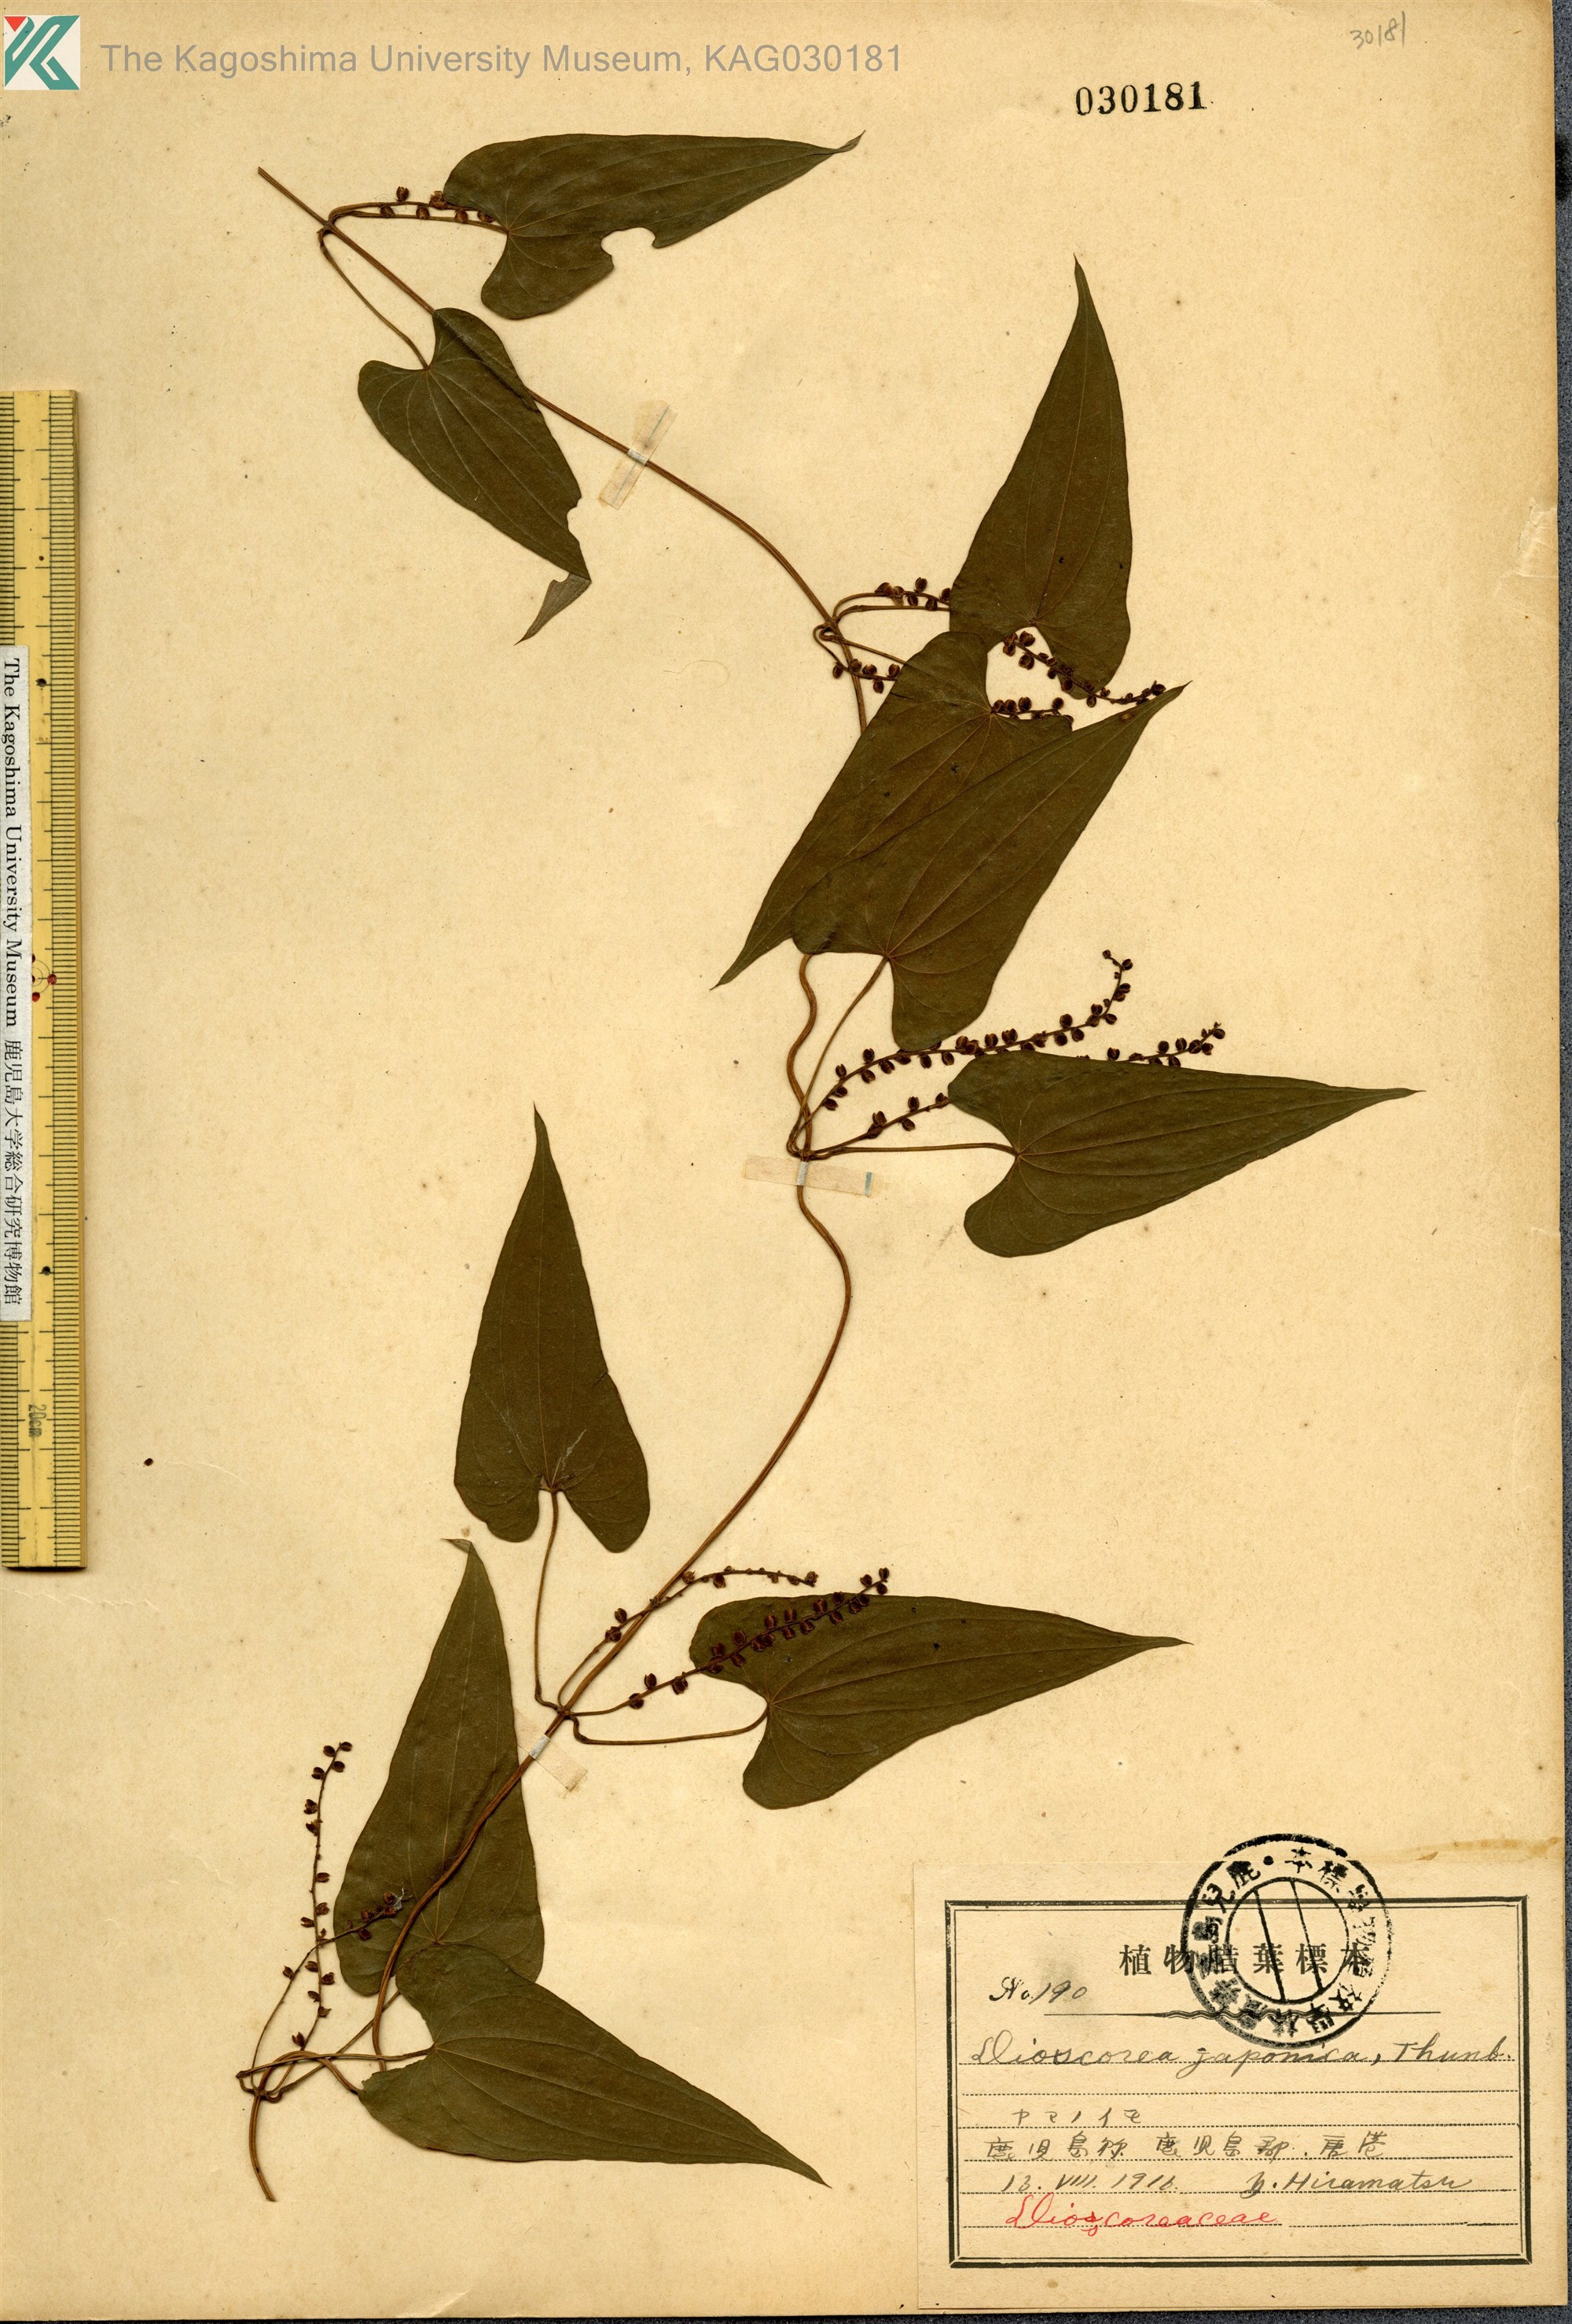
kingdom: Plantae
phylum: Tracheophyta
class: Liliopsida
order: Dioscoreales
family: Dioscoreaceae
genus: Dioscorea
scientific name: Dioscorea japonica
